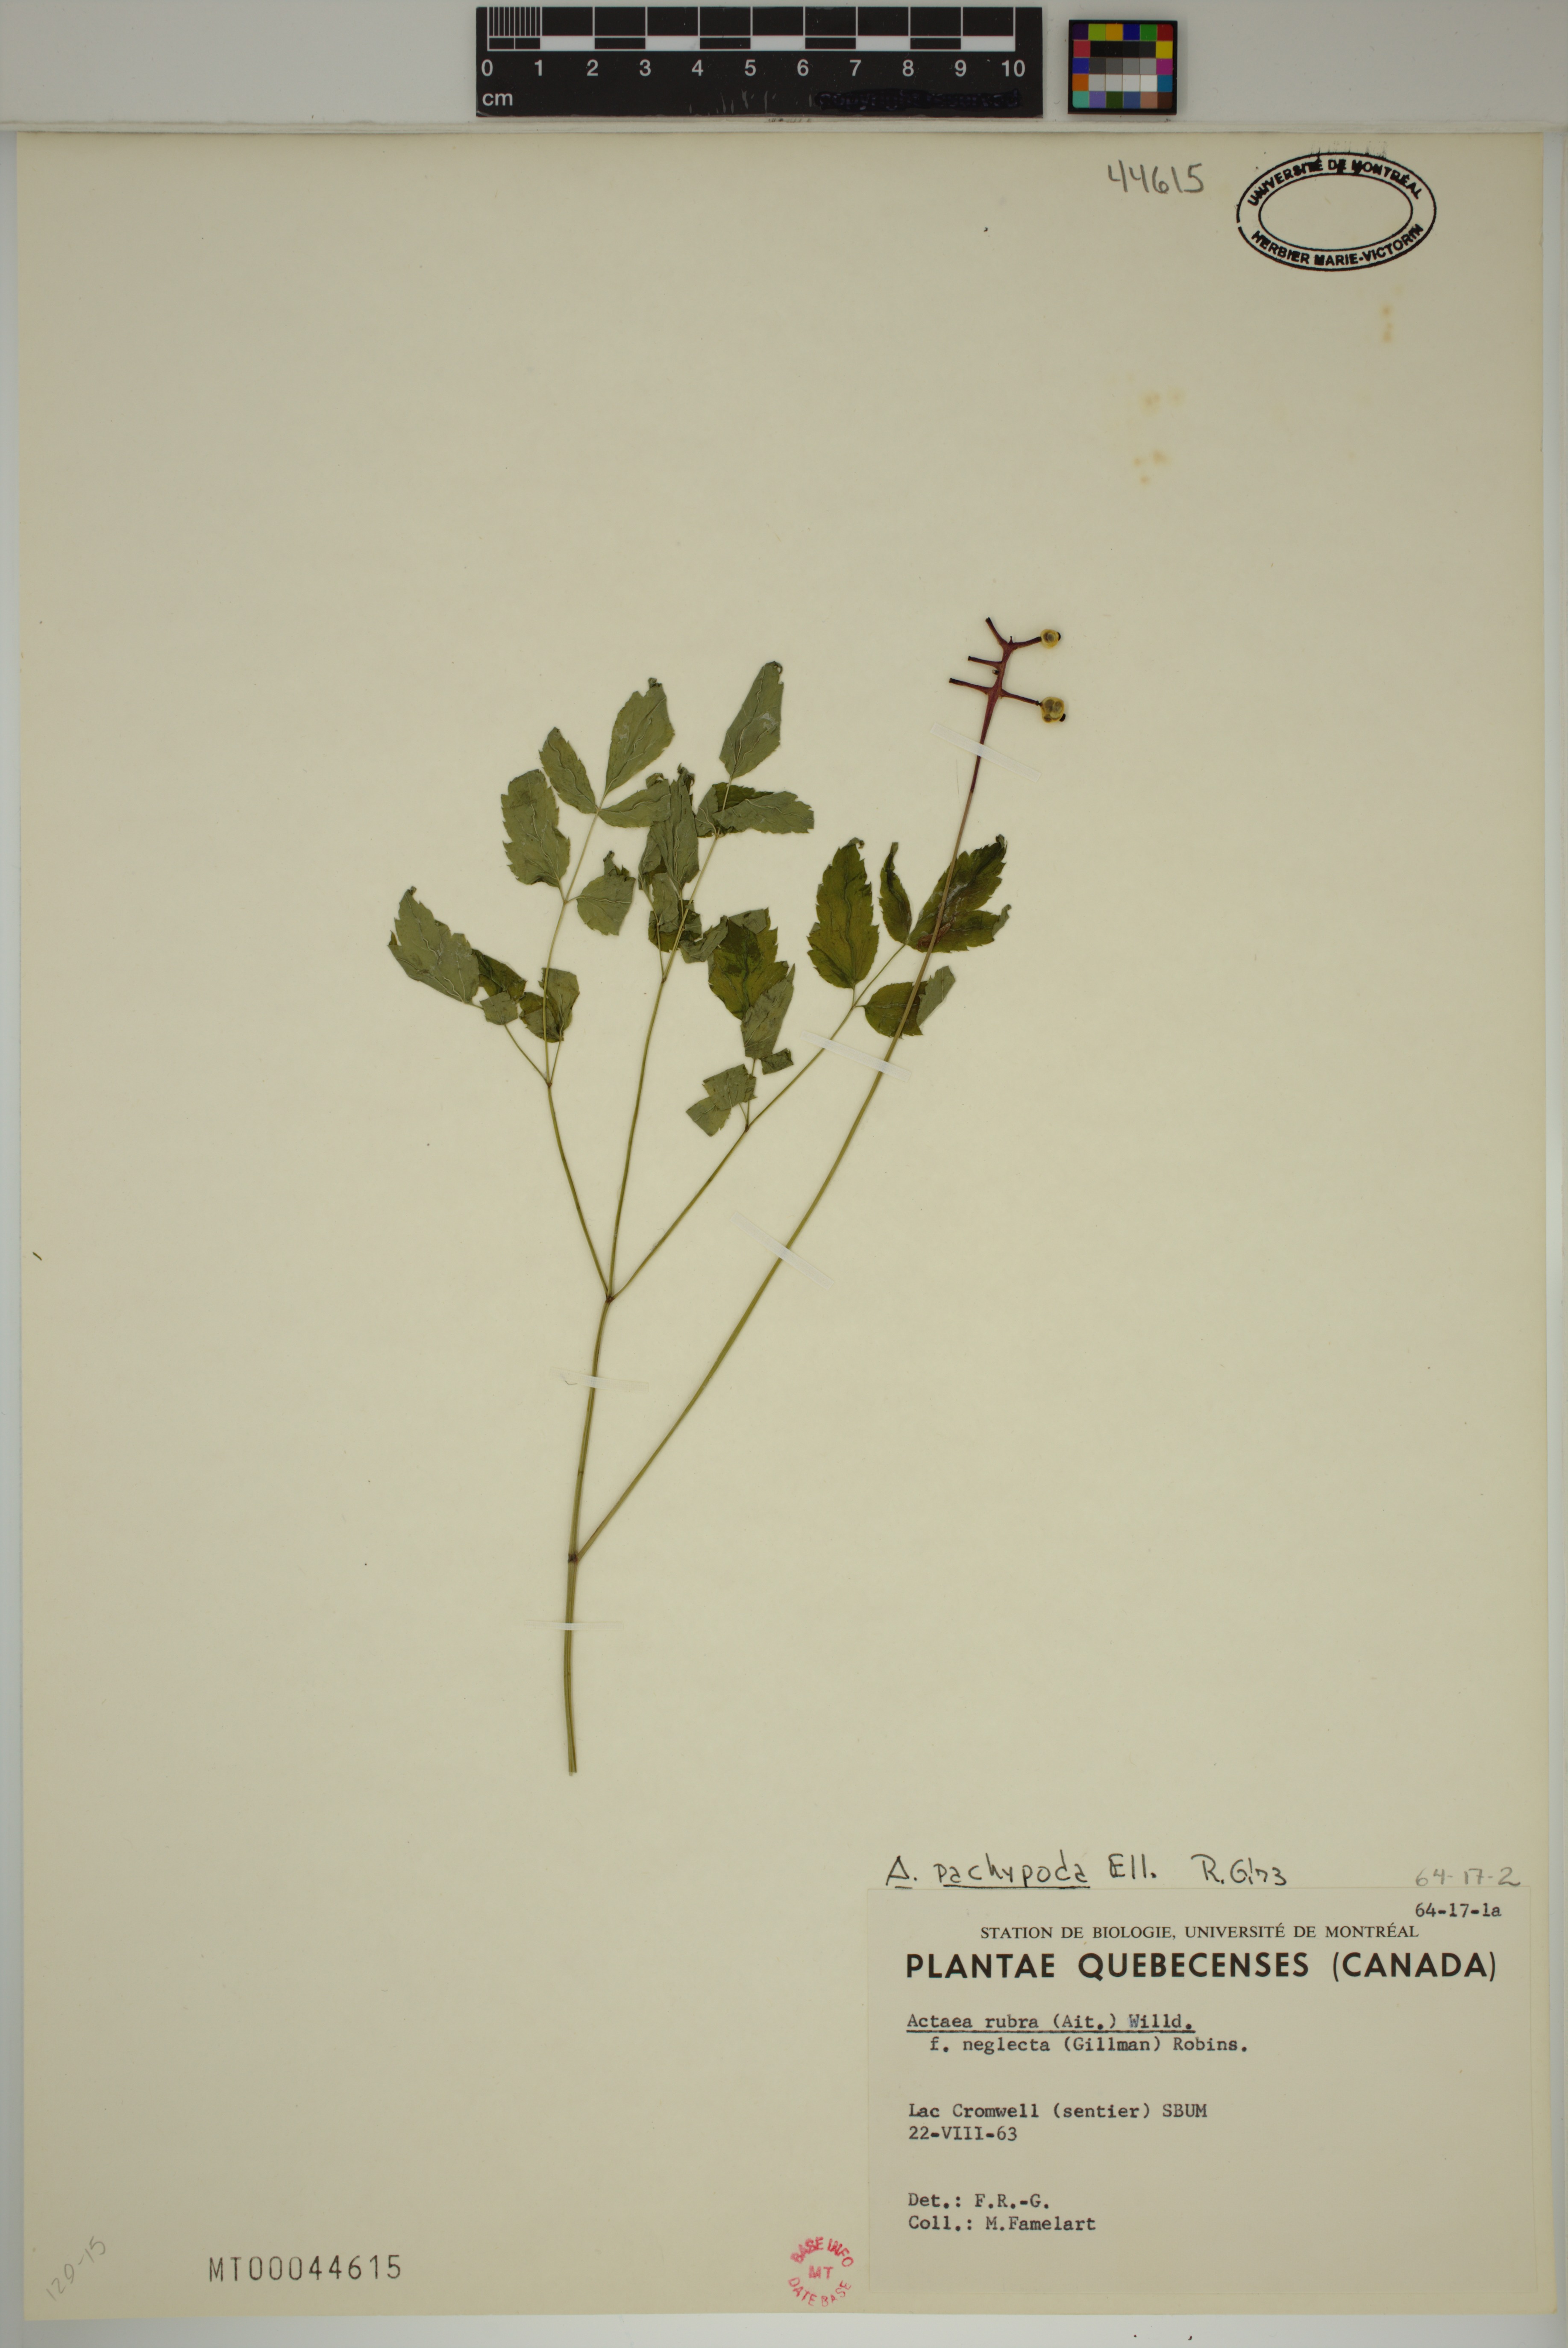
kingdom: Plantae
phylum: Tracheophyta
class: Magnoliopsida
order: Ranunculales
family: Ranunculaceae
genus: Actaea
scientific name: Actaea pachypoda
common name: Doll's-eyes
